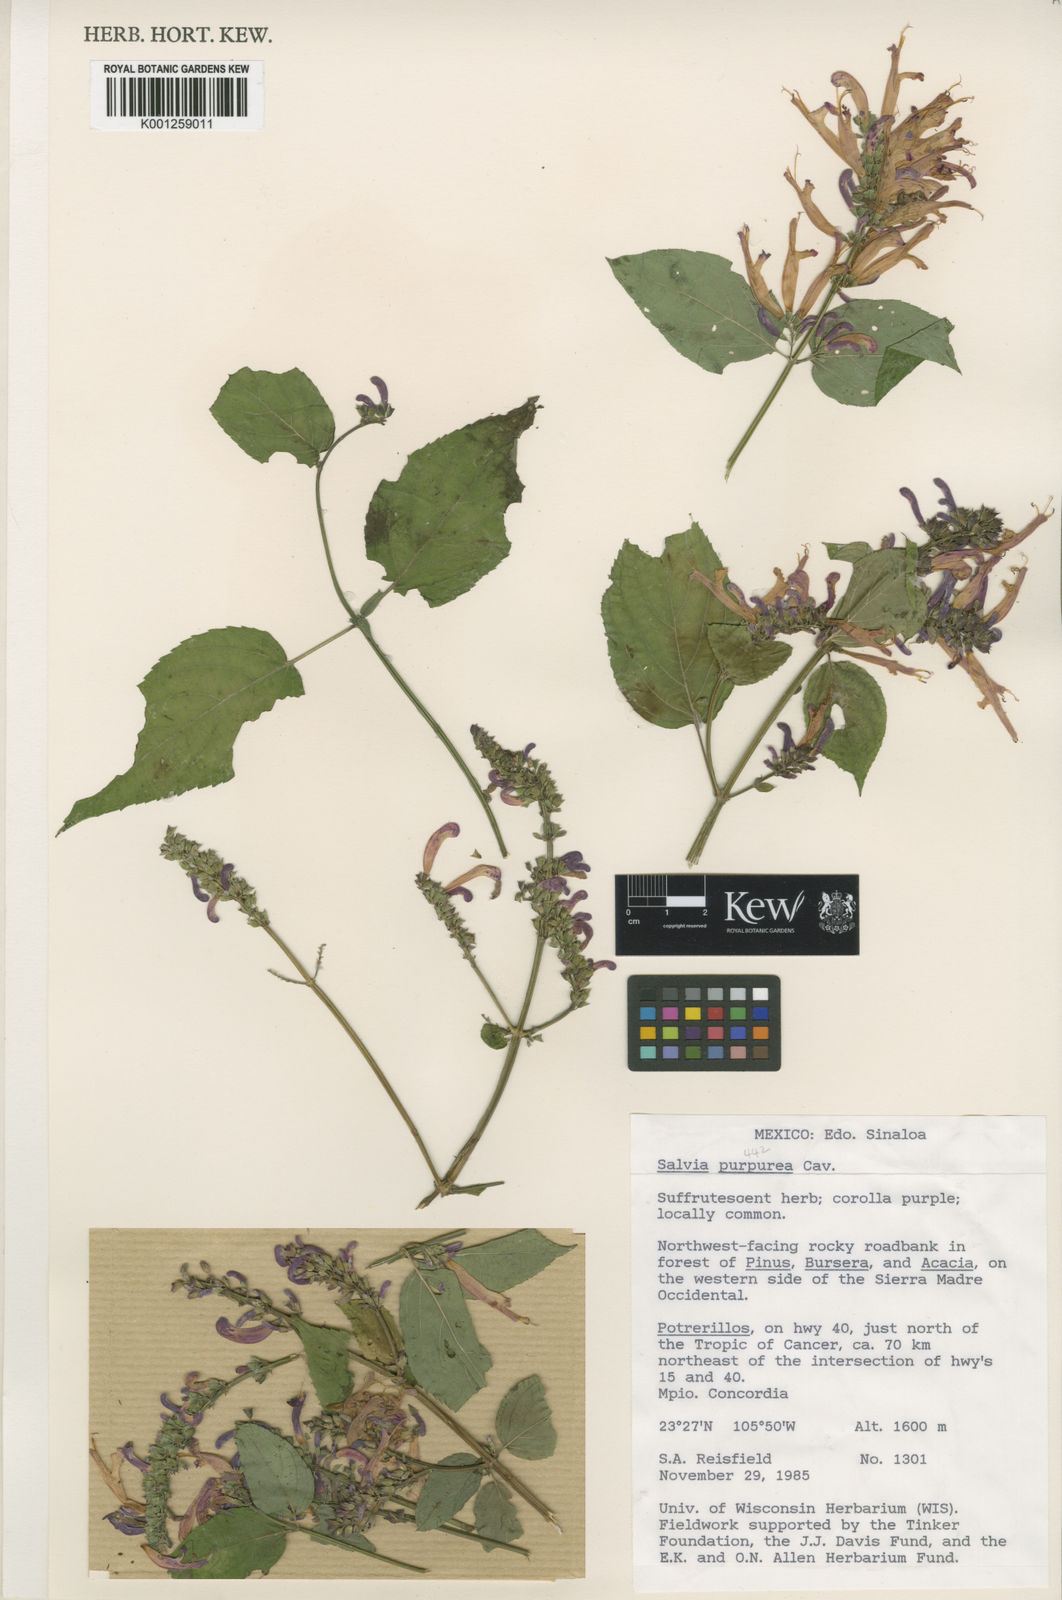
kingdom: Plantae
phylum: Tracheophyta
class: Magnoliopsida
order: Lamiales
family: Lamiaceae
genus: Salvia
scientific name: Salvia purpurea
